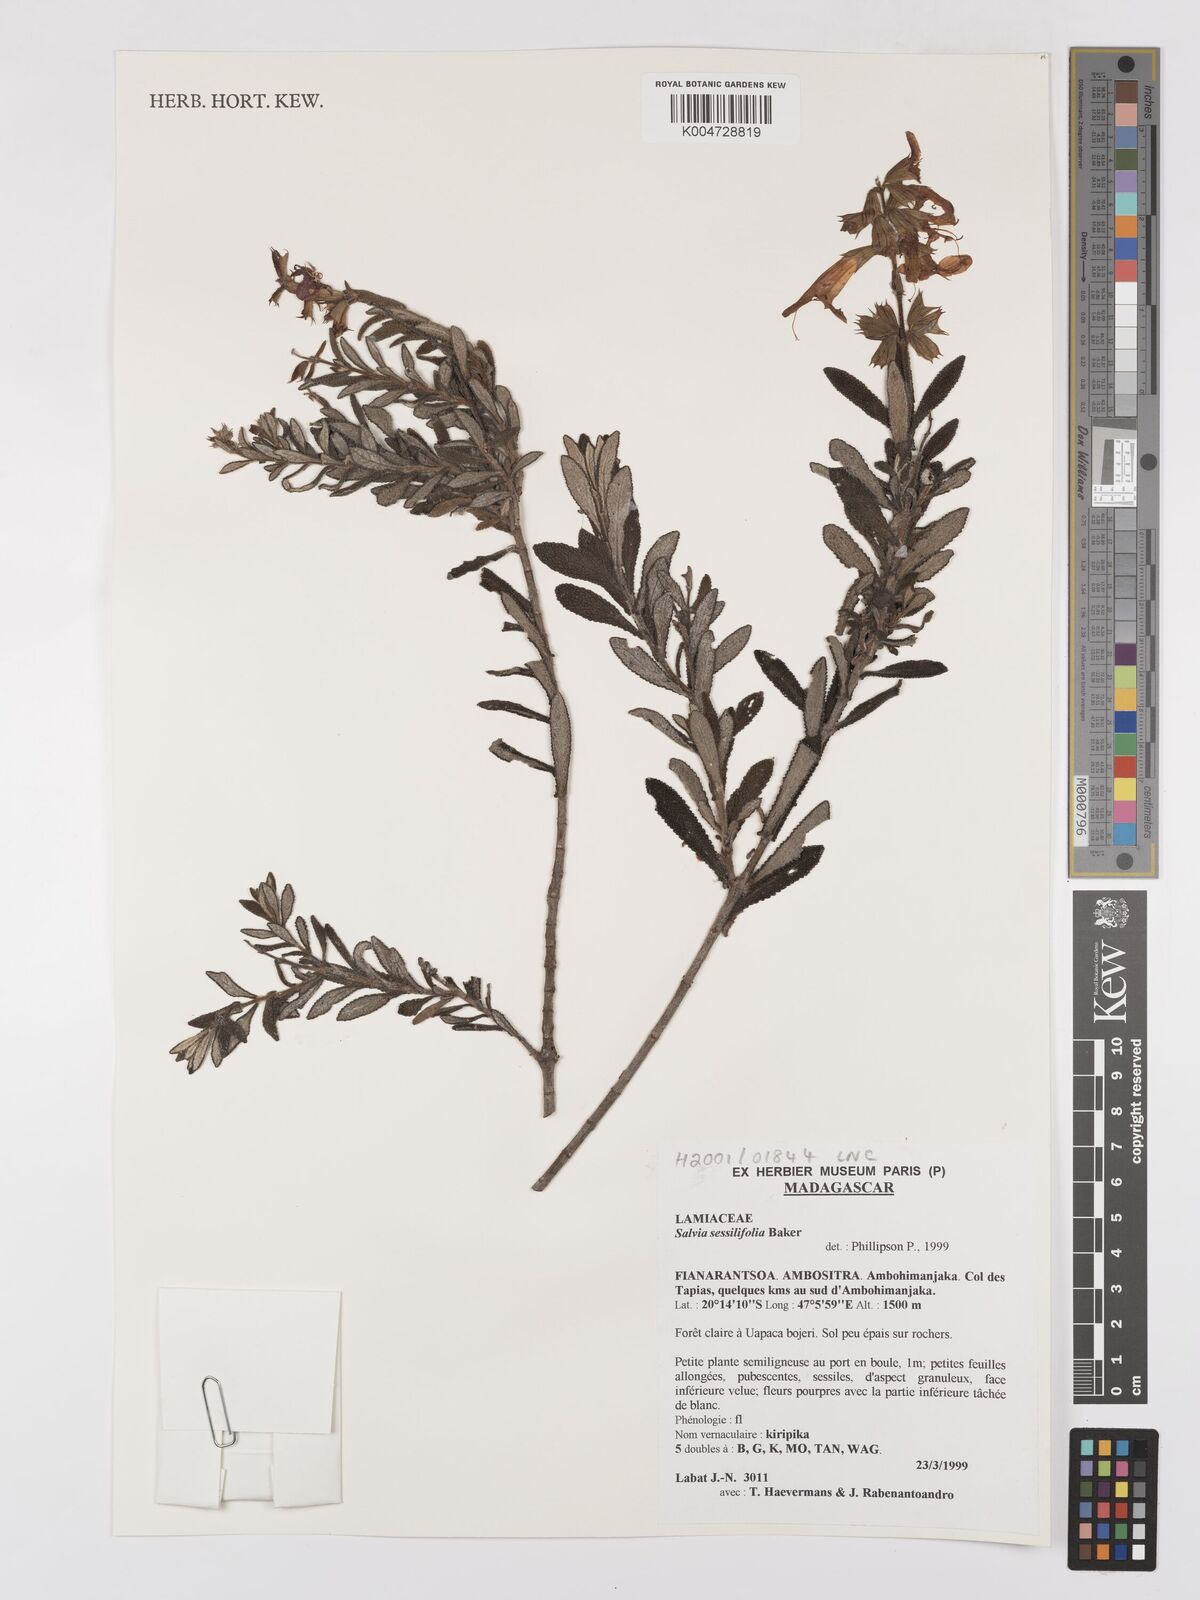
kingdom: Plantae
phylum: Tracheophyta
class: Magnoliopsida
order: Lamiales
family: Lamiaceae
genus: Salvia
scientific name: Salvia sessilifolia
